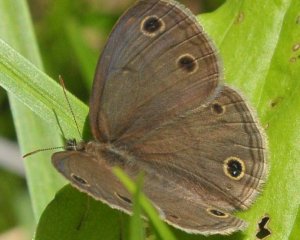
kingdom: Animalia
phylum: Arthropoda
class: Insecta
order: Lepidoptera
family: Nymphalidae
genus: Euptychia
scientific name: Euptychia cymela
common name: Little Wood Satyr
